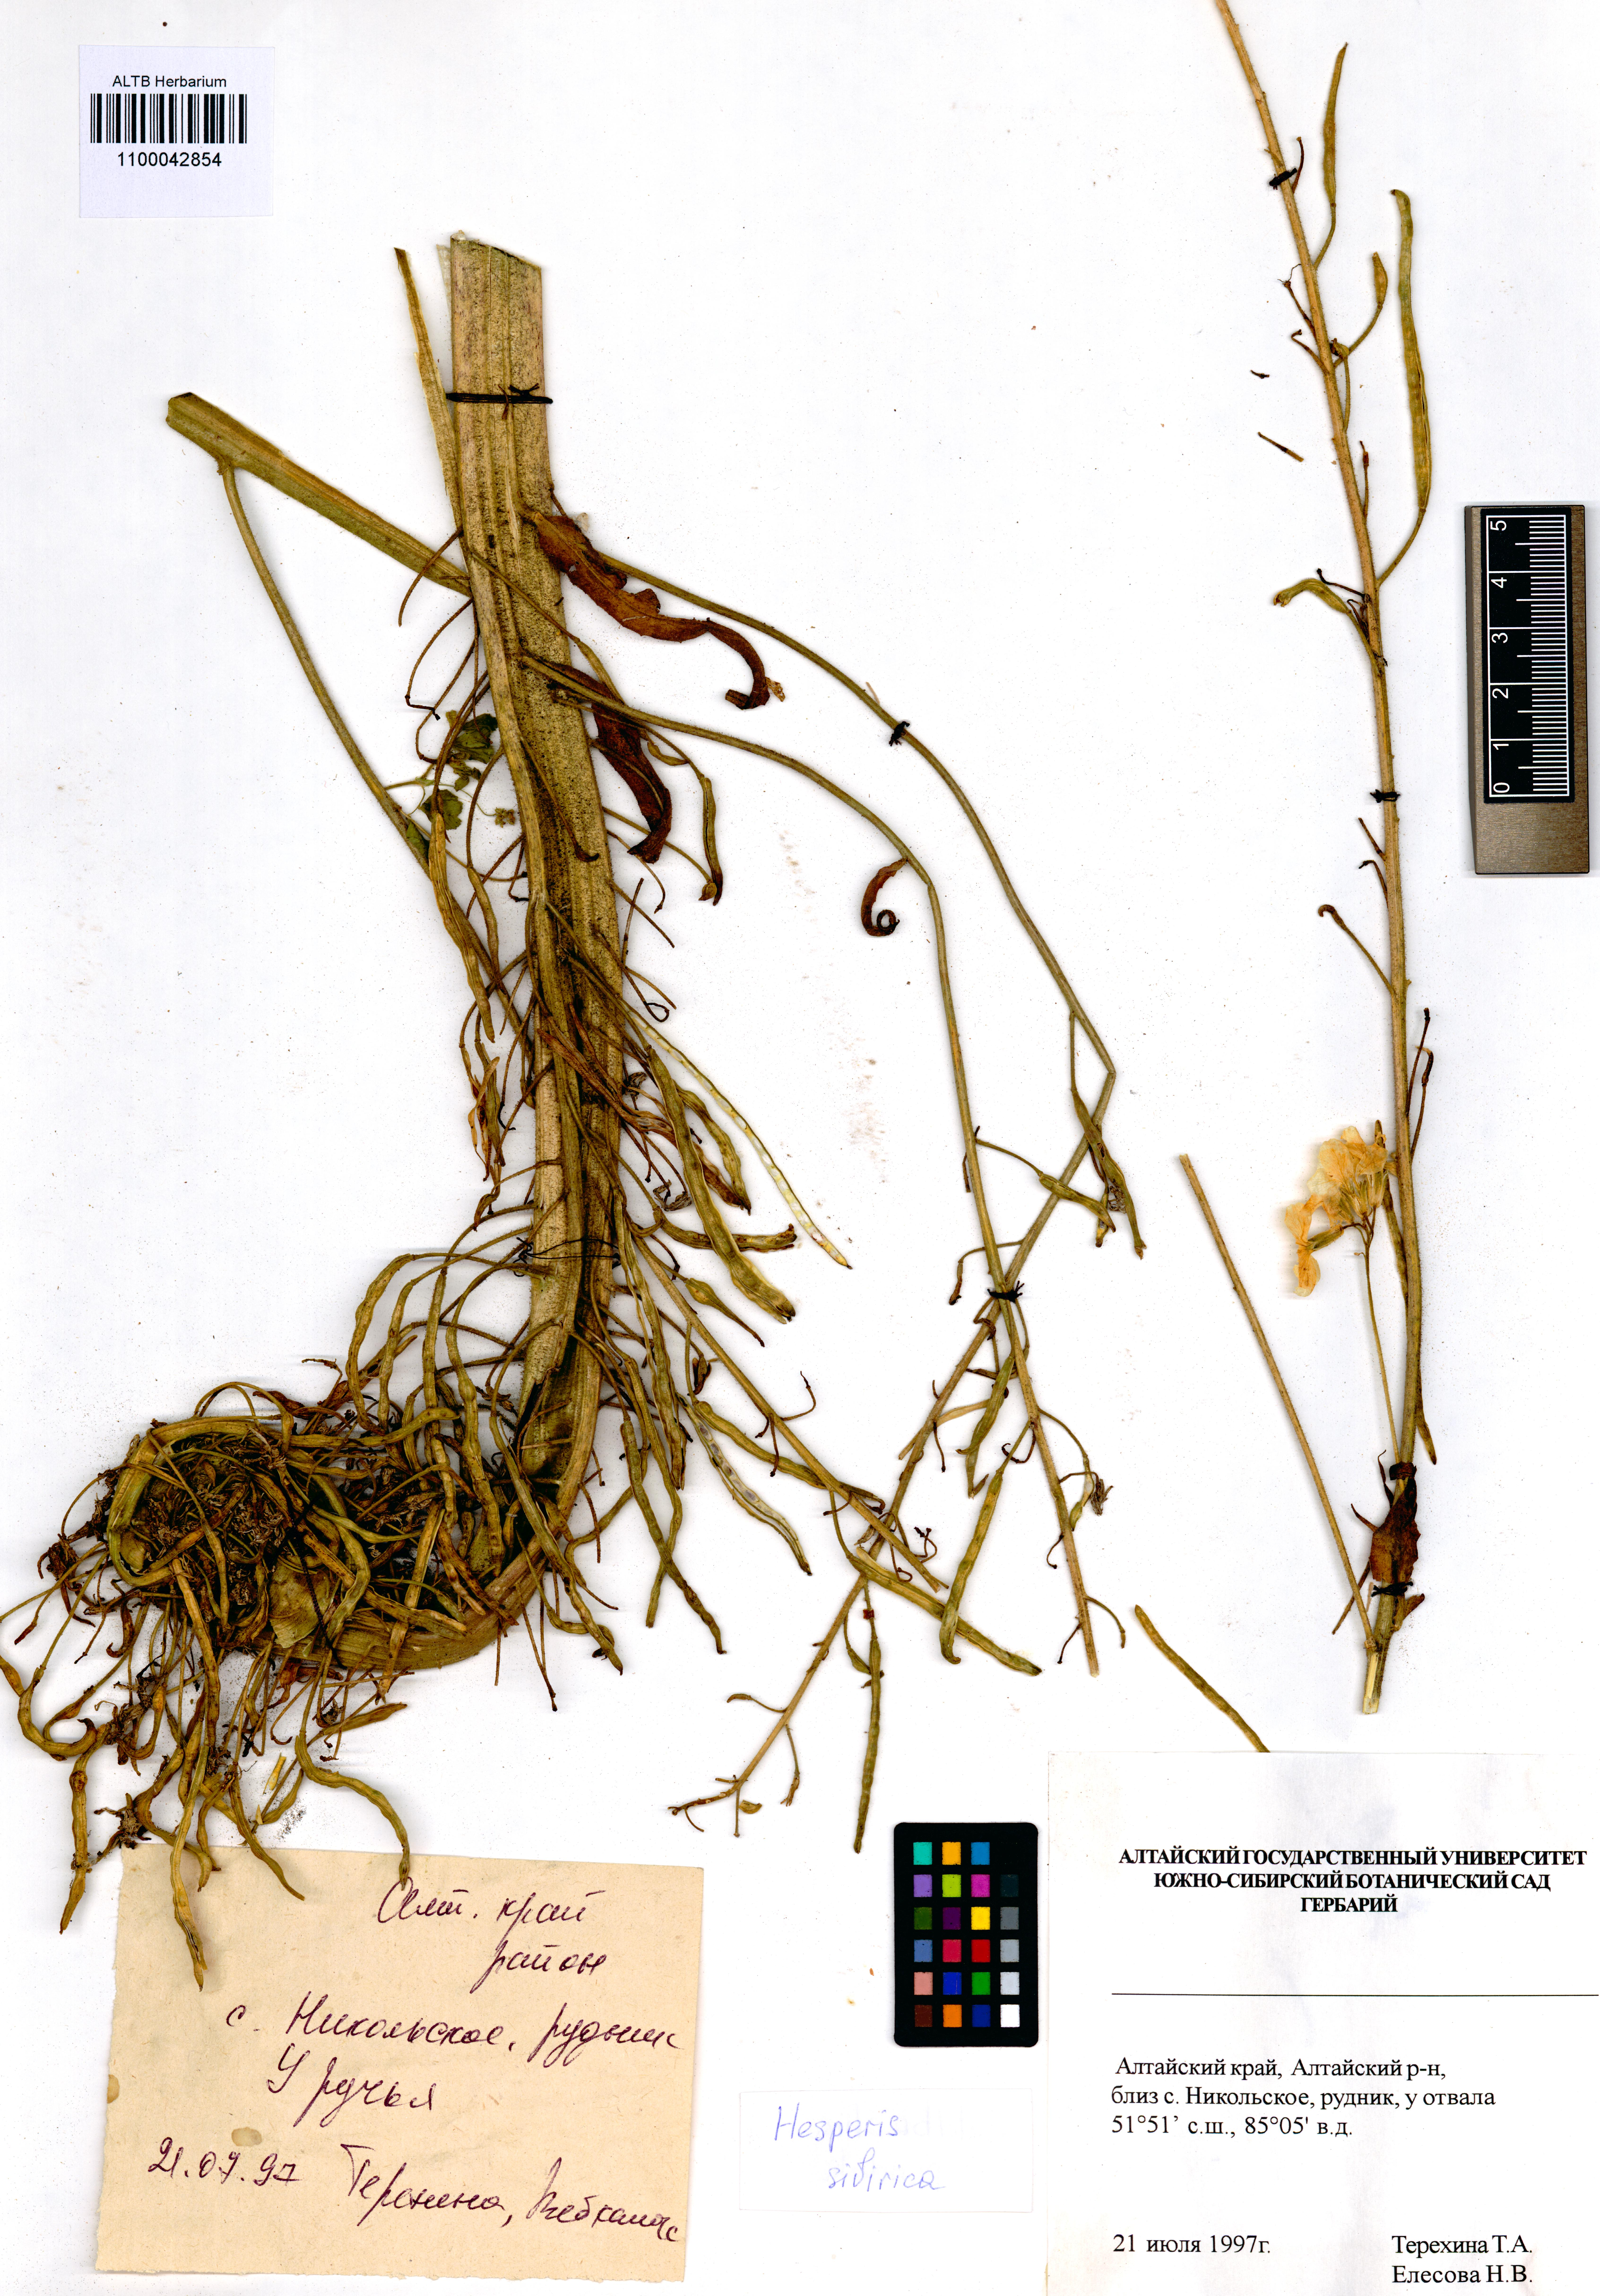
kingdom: Plantae
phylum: Tracheophyta
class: Magnoliopsida
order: Brassicales
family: Brassicaceae
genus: Hesperis
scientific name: Hesperis sibirica
